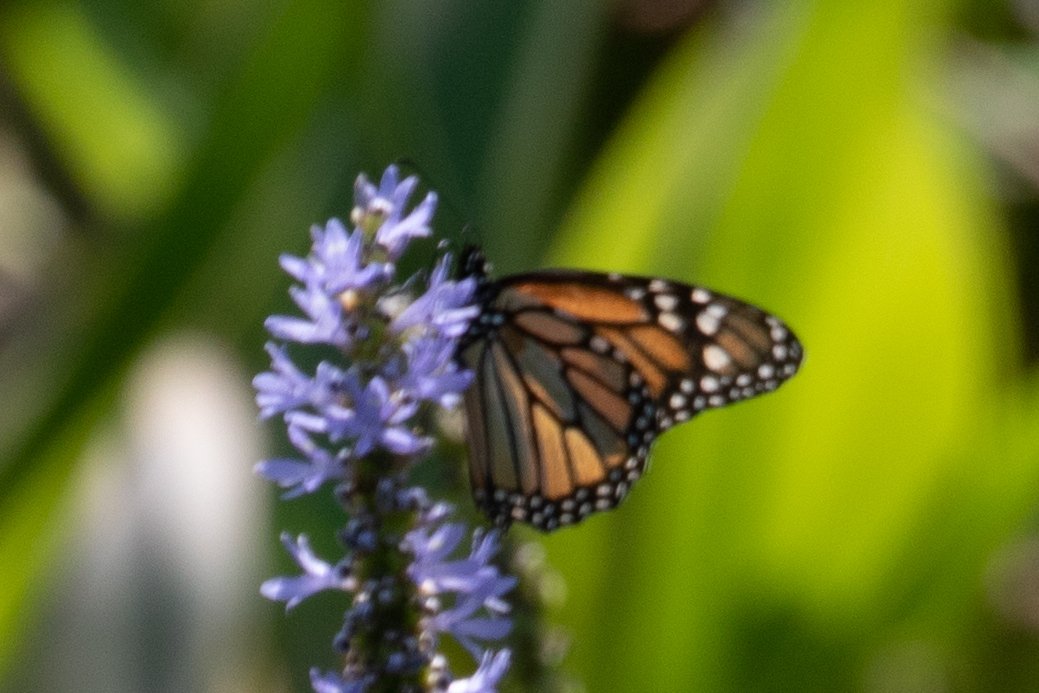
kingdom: Animalia
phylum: Arthropoda
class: Insecta
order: Lepidoptera
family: Nymphalidae
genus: Danaus
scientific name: Danaus plexippus
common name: Monarch
